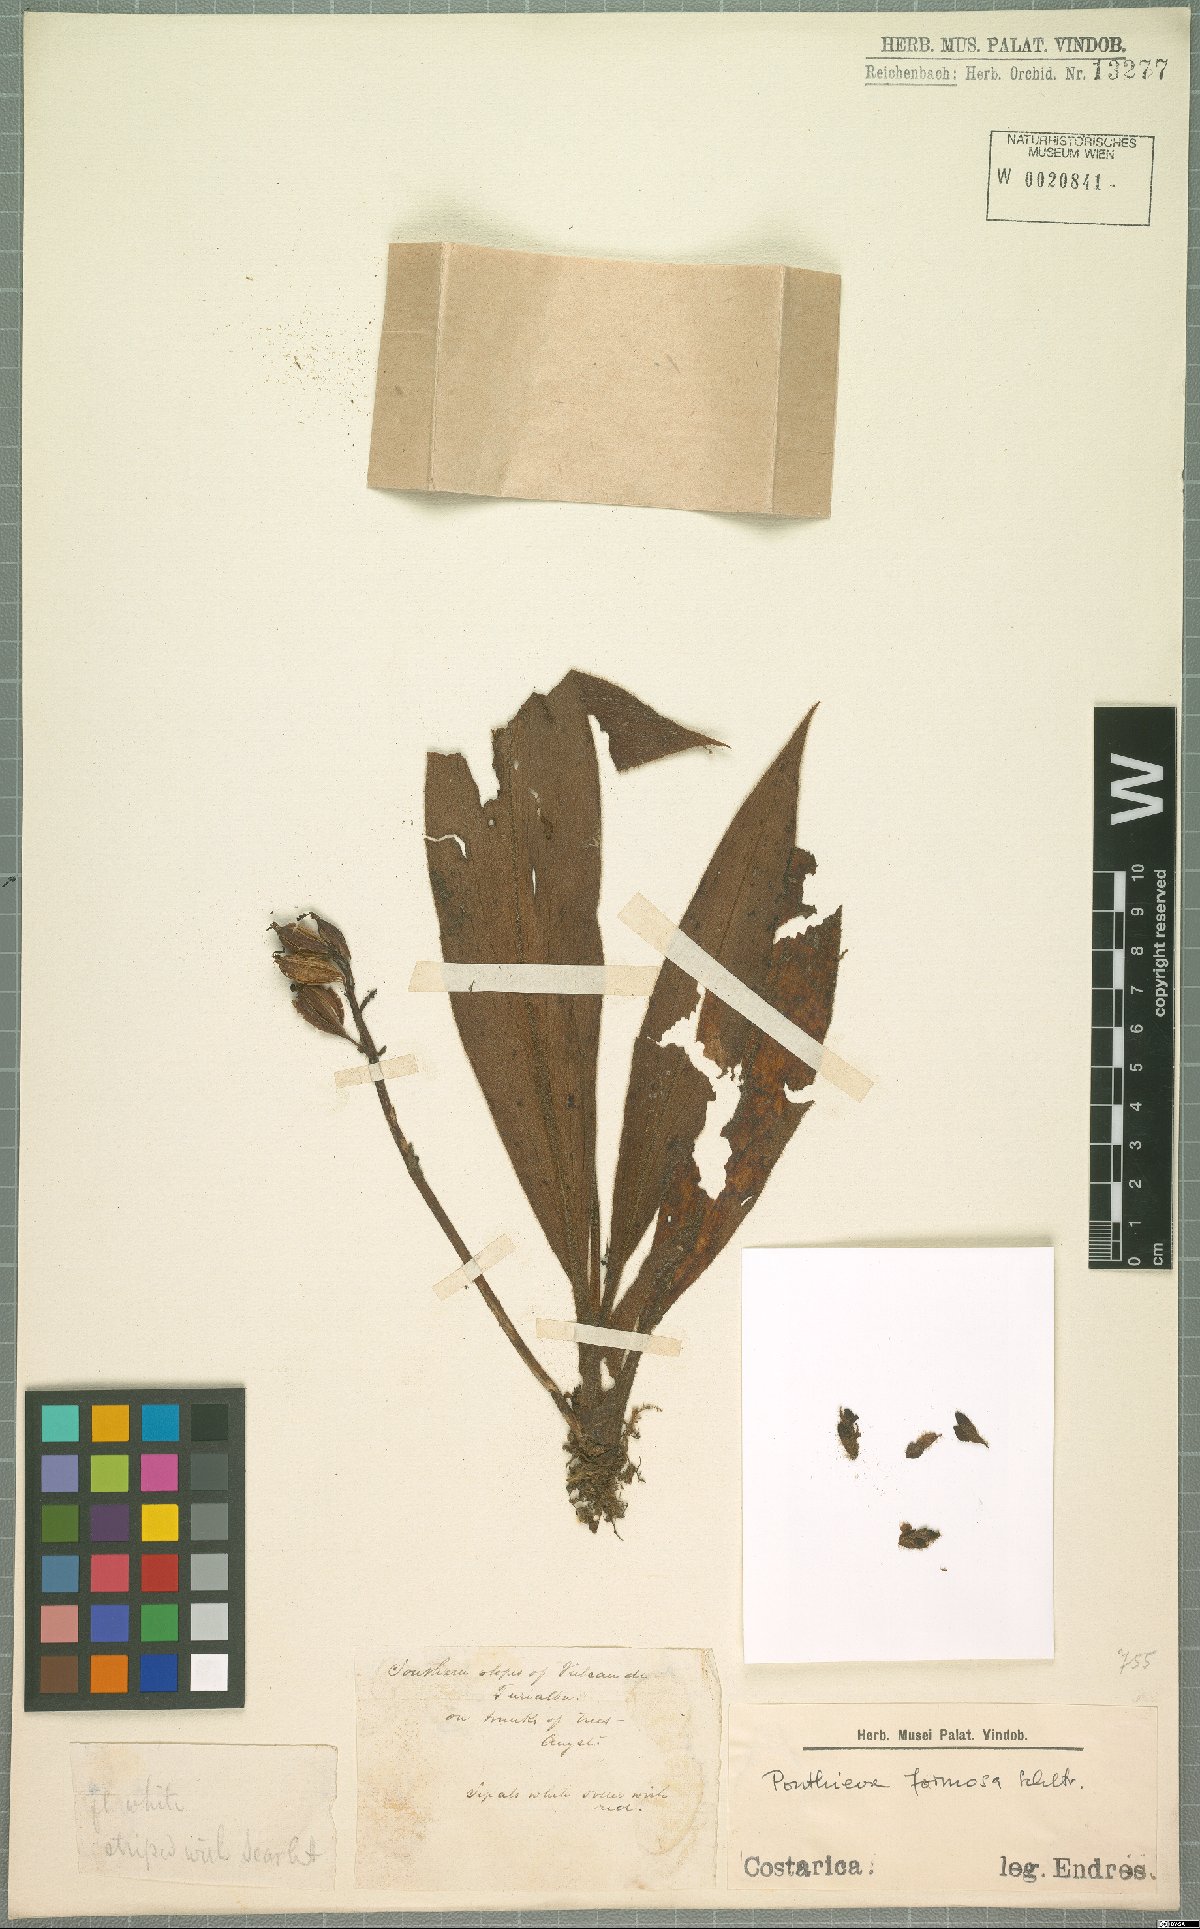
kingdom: Plantae
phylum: Tracheophyta
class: Liliopsida
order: Asparagales
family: Orchidaceae
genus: Ponthieva
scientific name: Ponthieva formosa
